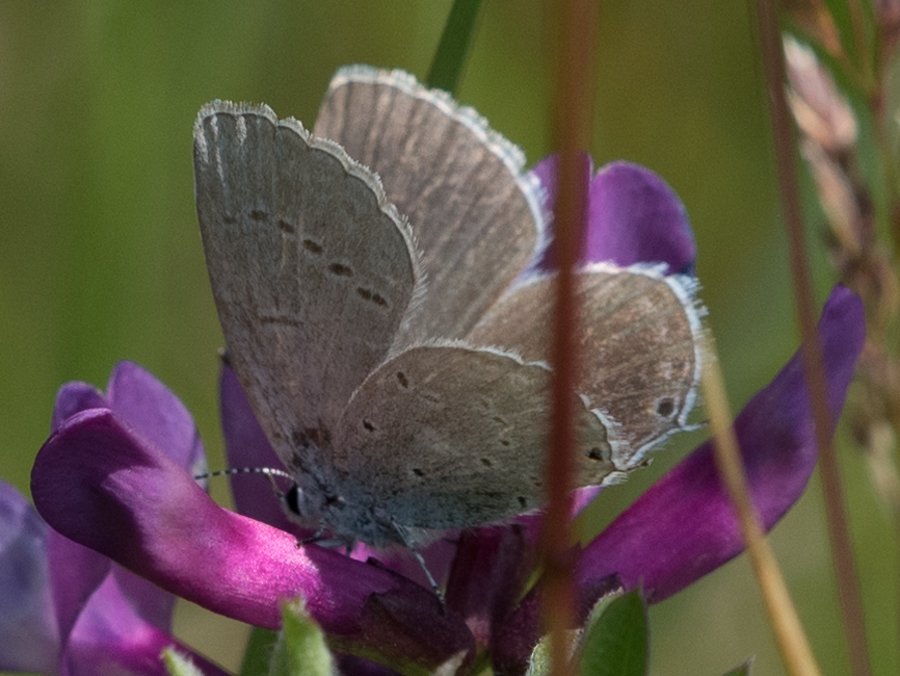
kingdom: Animalia
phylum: Arthropoda
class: Insecta
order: Lepidoptera
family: Lycaenidae
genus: Elkalyce
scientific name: Elkalyce amyntula
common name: Western Tailed-Blue
